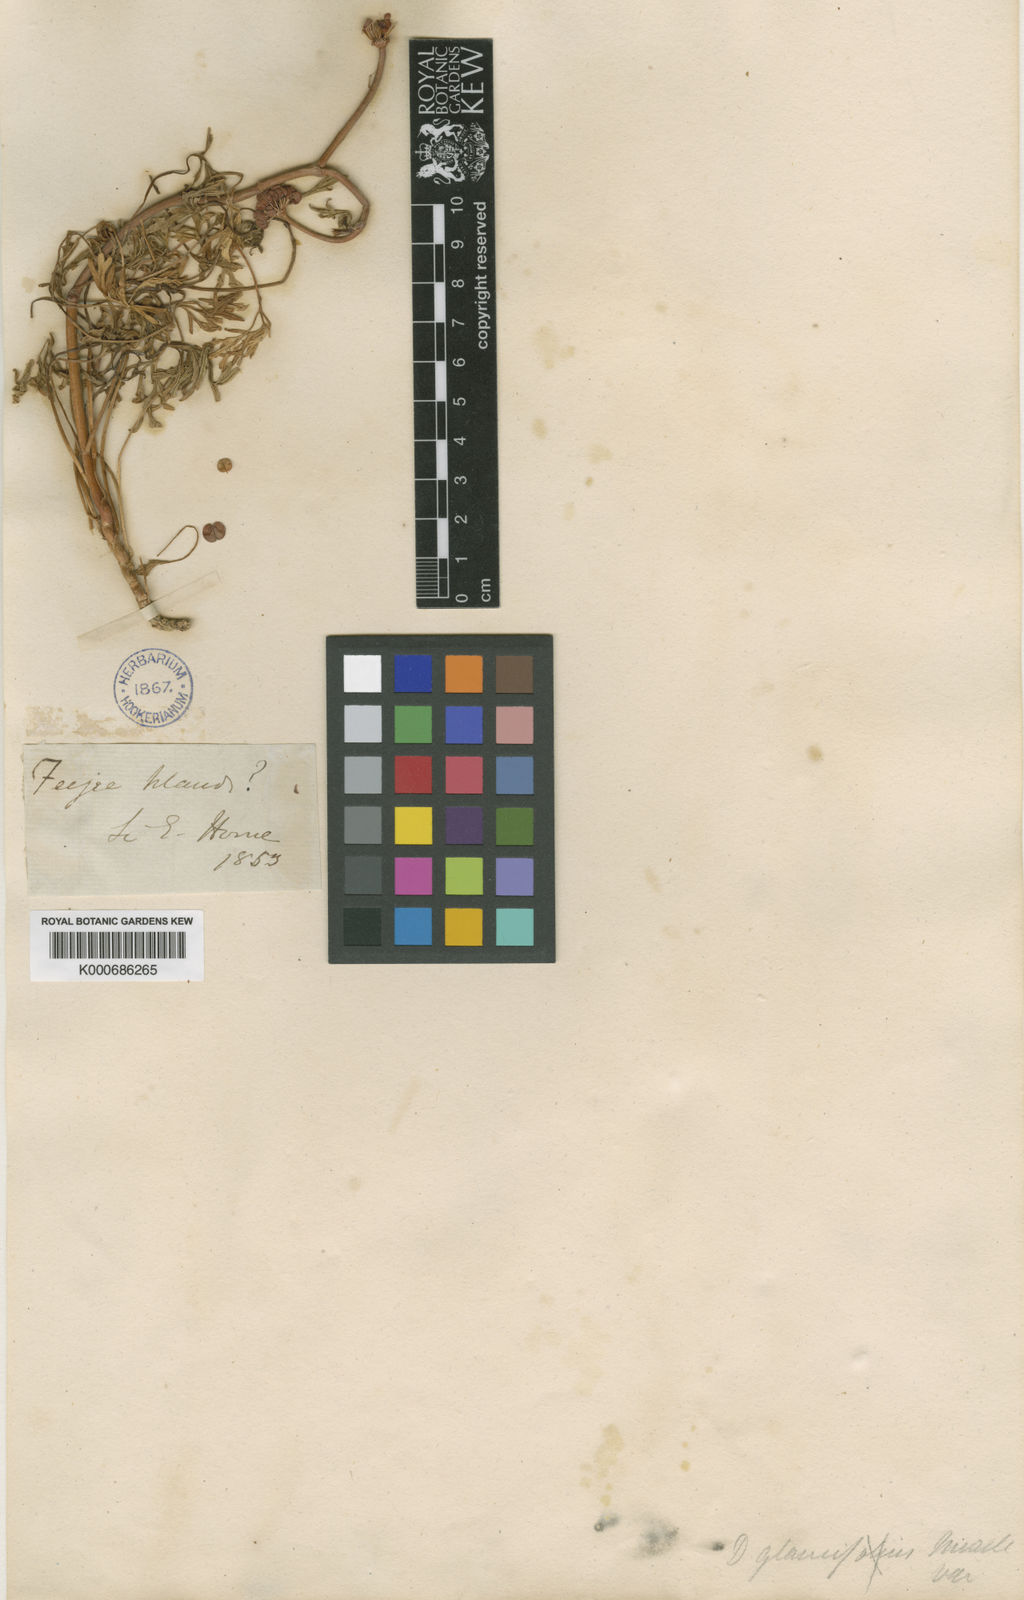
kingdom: Plantae
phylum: Tracheophyta
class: Magnoliopsida
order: Apiales
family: Araliaceae
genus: Trachymene
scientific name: Trachymene cussonii
